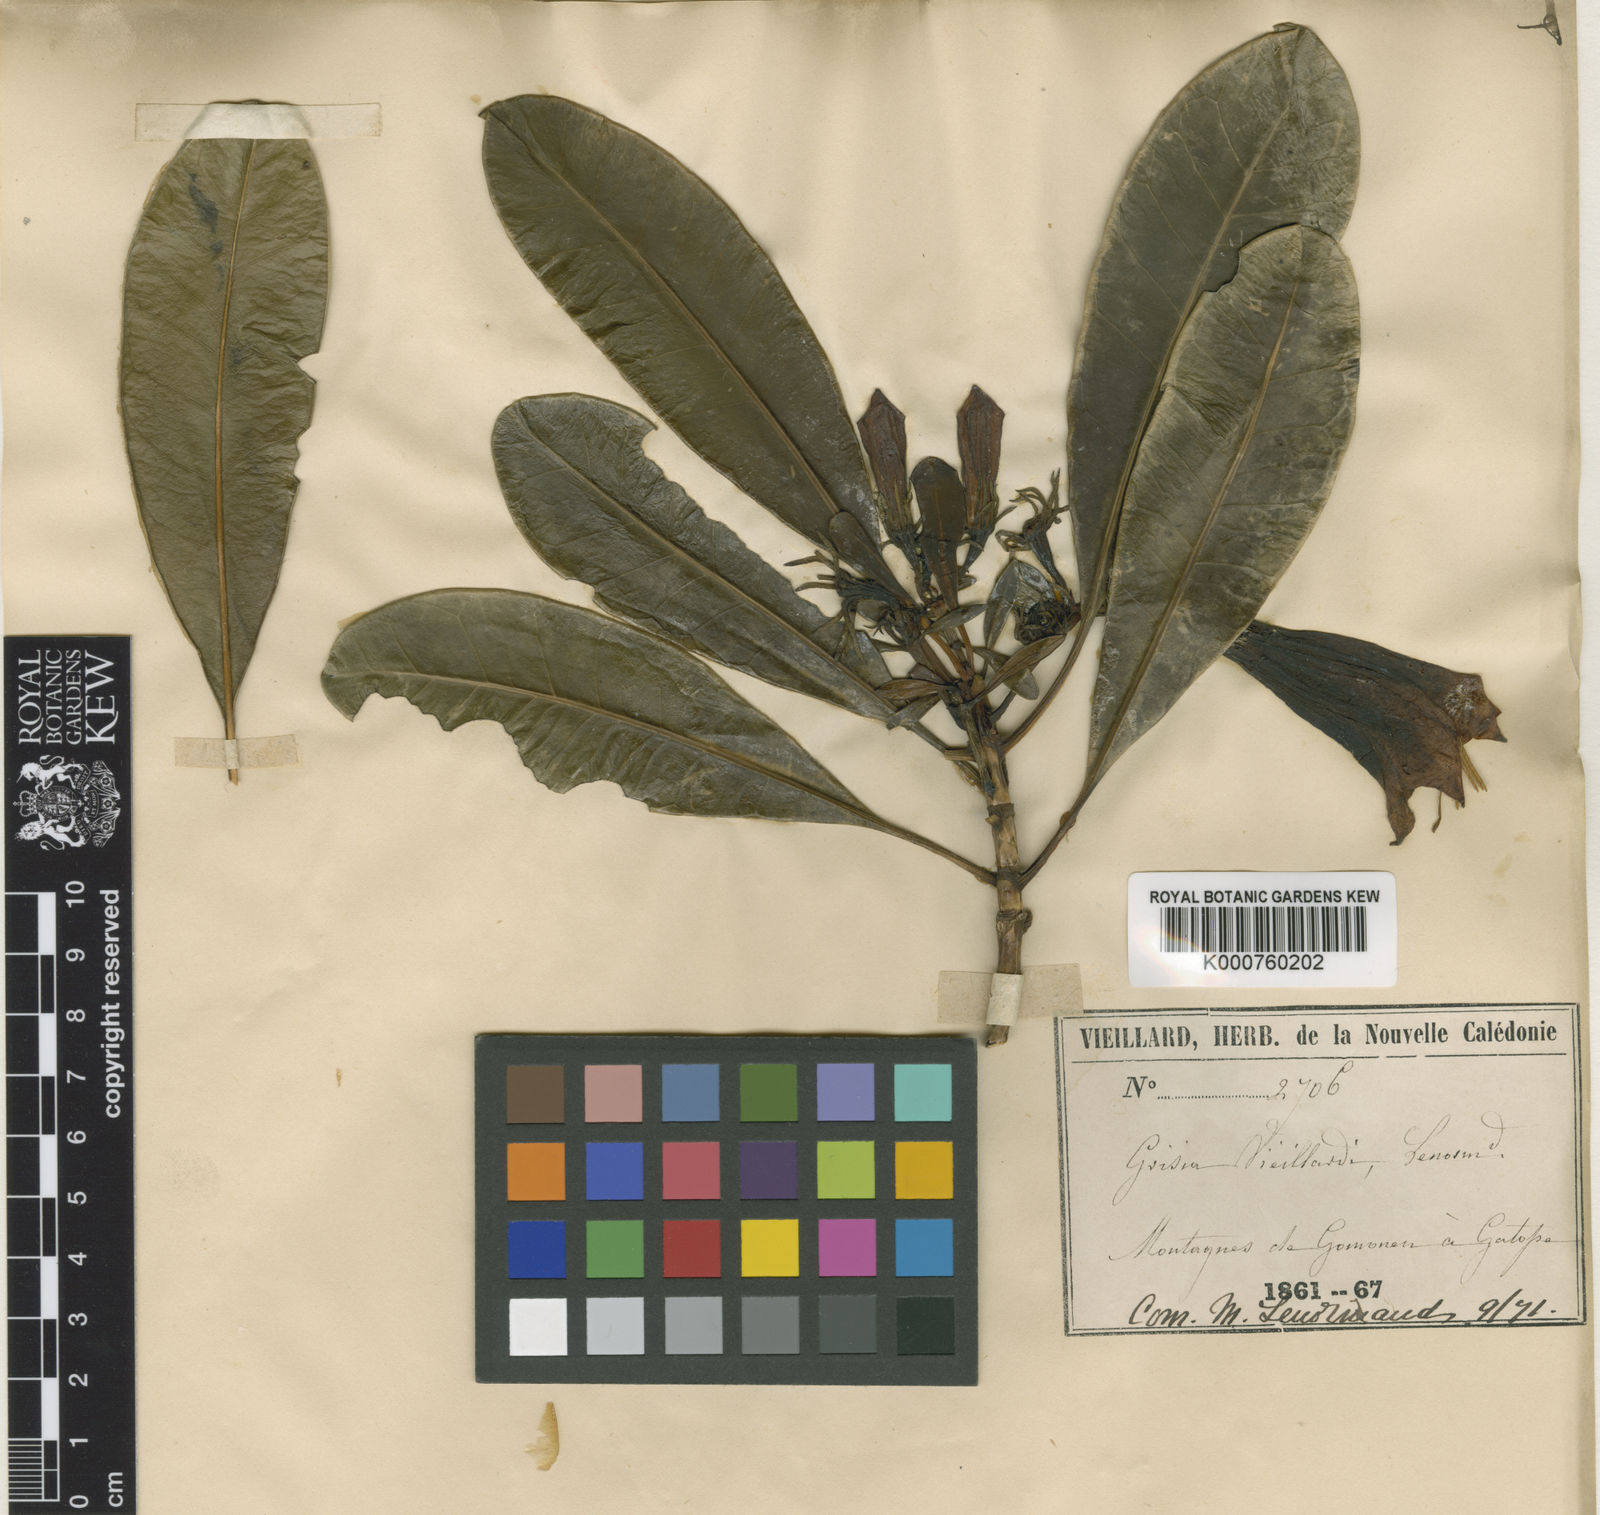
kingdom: Plantae
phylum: Tracheophyta
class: Magnoliopsida
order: Gentianales
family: Rubiaceae
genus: Thiollierea
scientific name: Thiollierea
